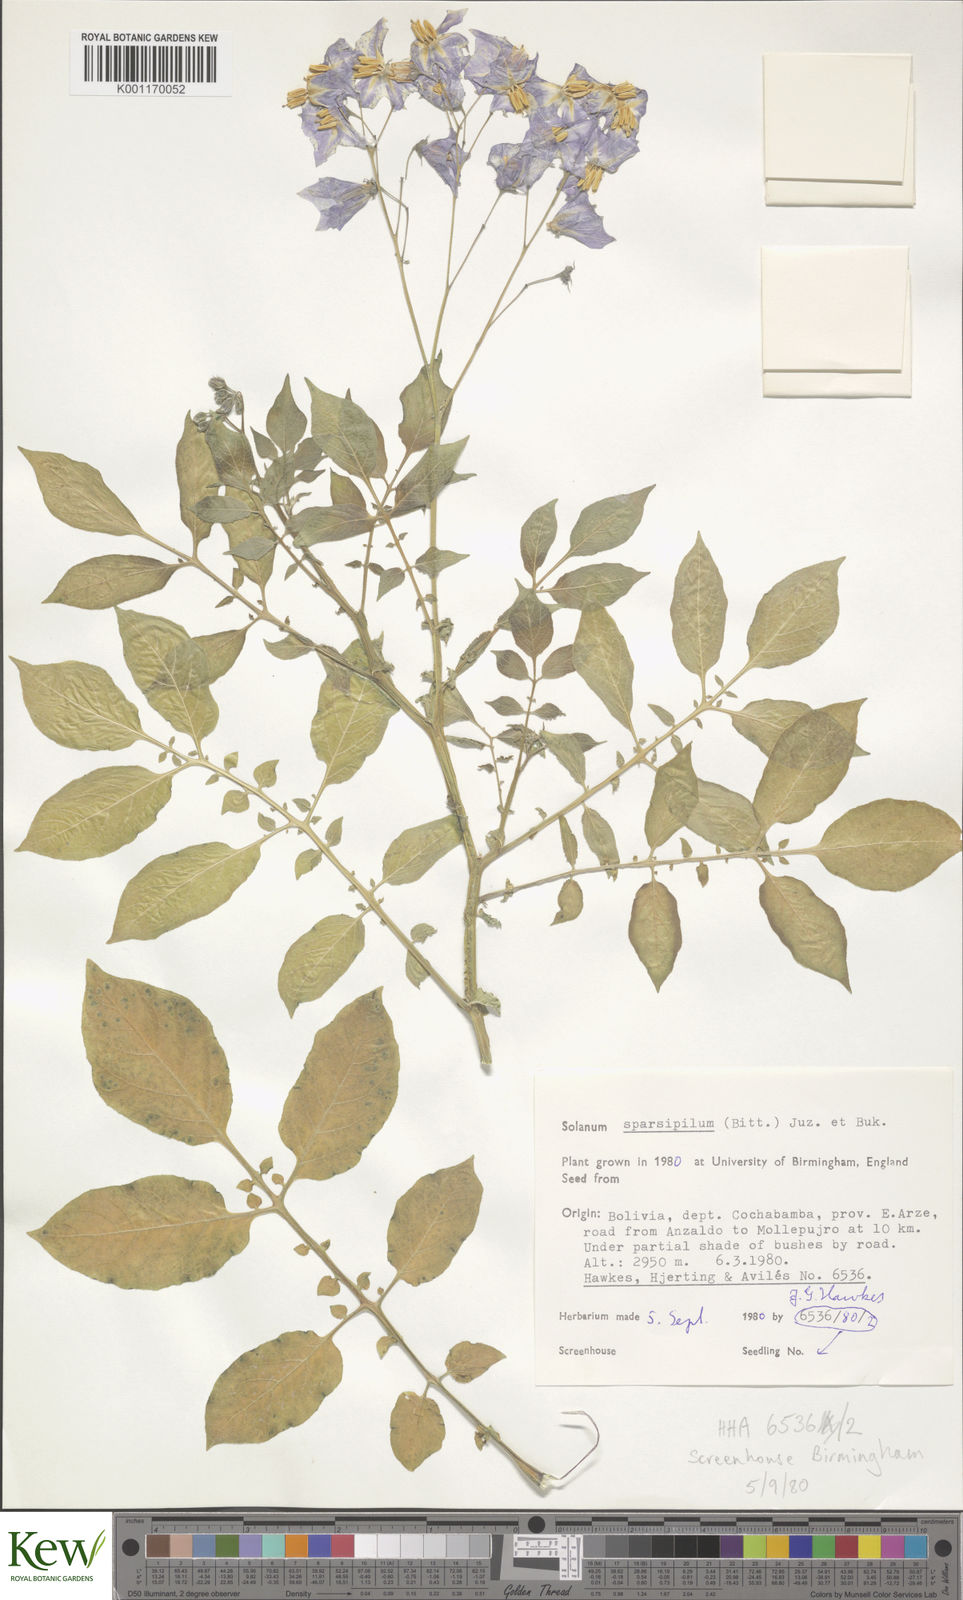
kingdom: Plantae
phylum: Tracheophyta
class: Magnoliopsida
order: Solanales
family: Solanaceae
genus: Solanum
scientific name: Solanum brevicaule
